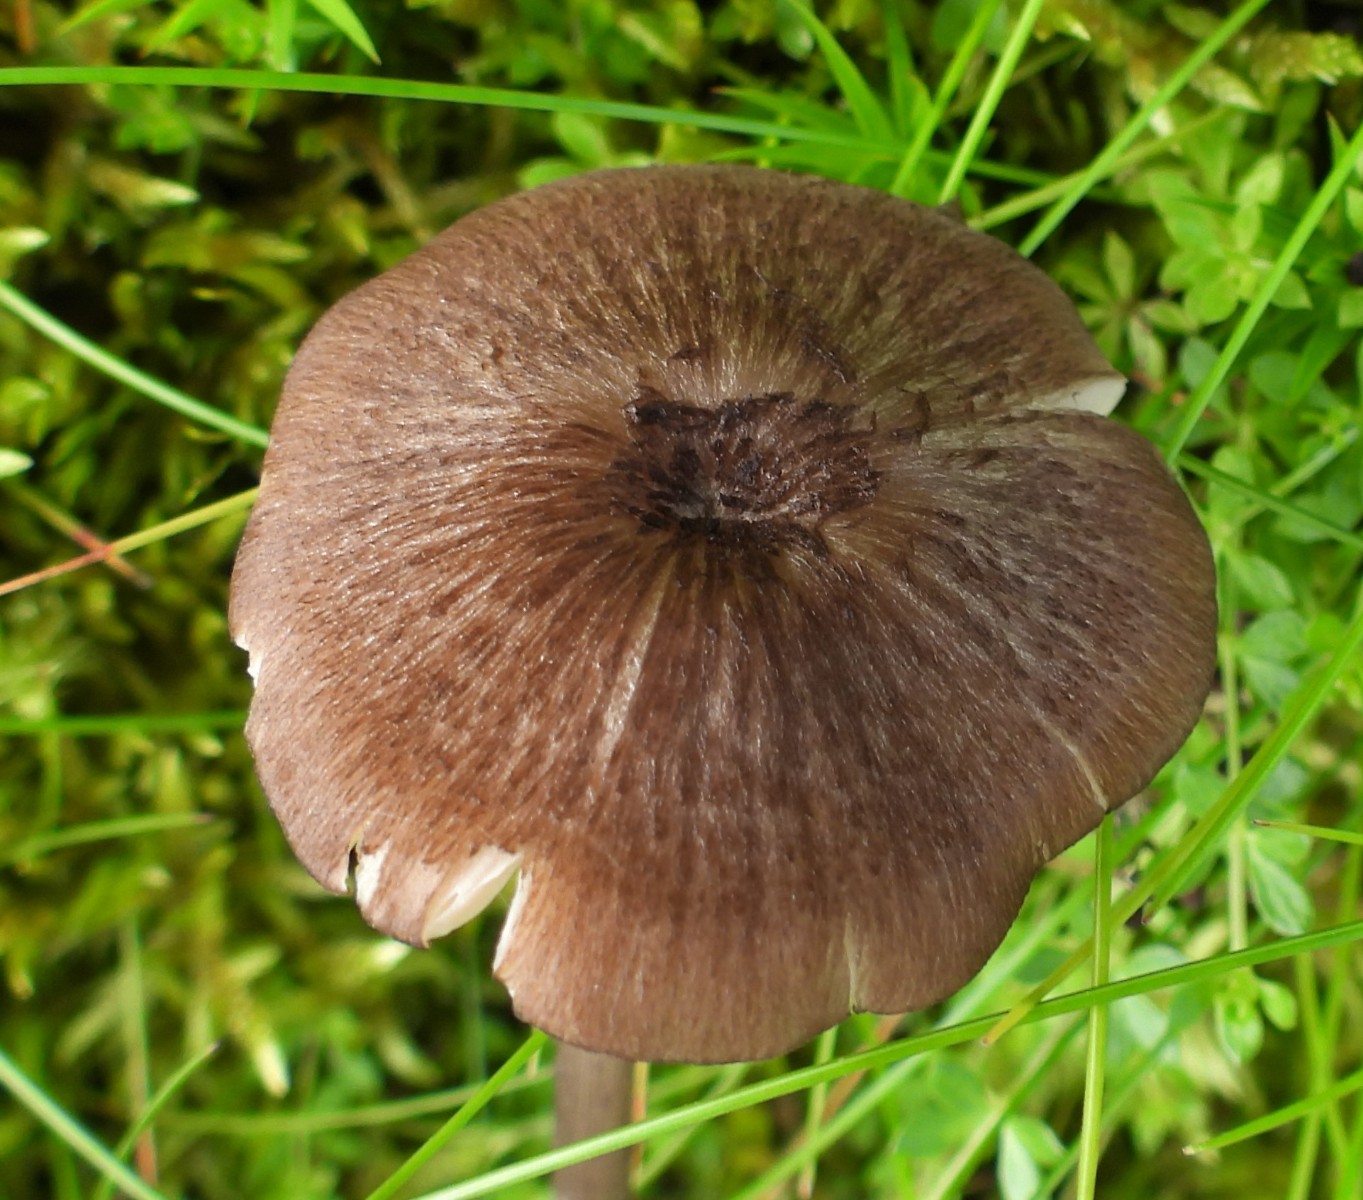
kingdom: Fungi
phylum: Basidiomycota
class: Agaricomycetes
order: Agaricales
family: Entolomataceae
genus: Entoloma
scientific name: Entoloma glaucobasis
